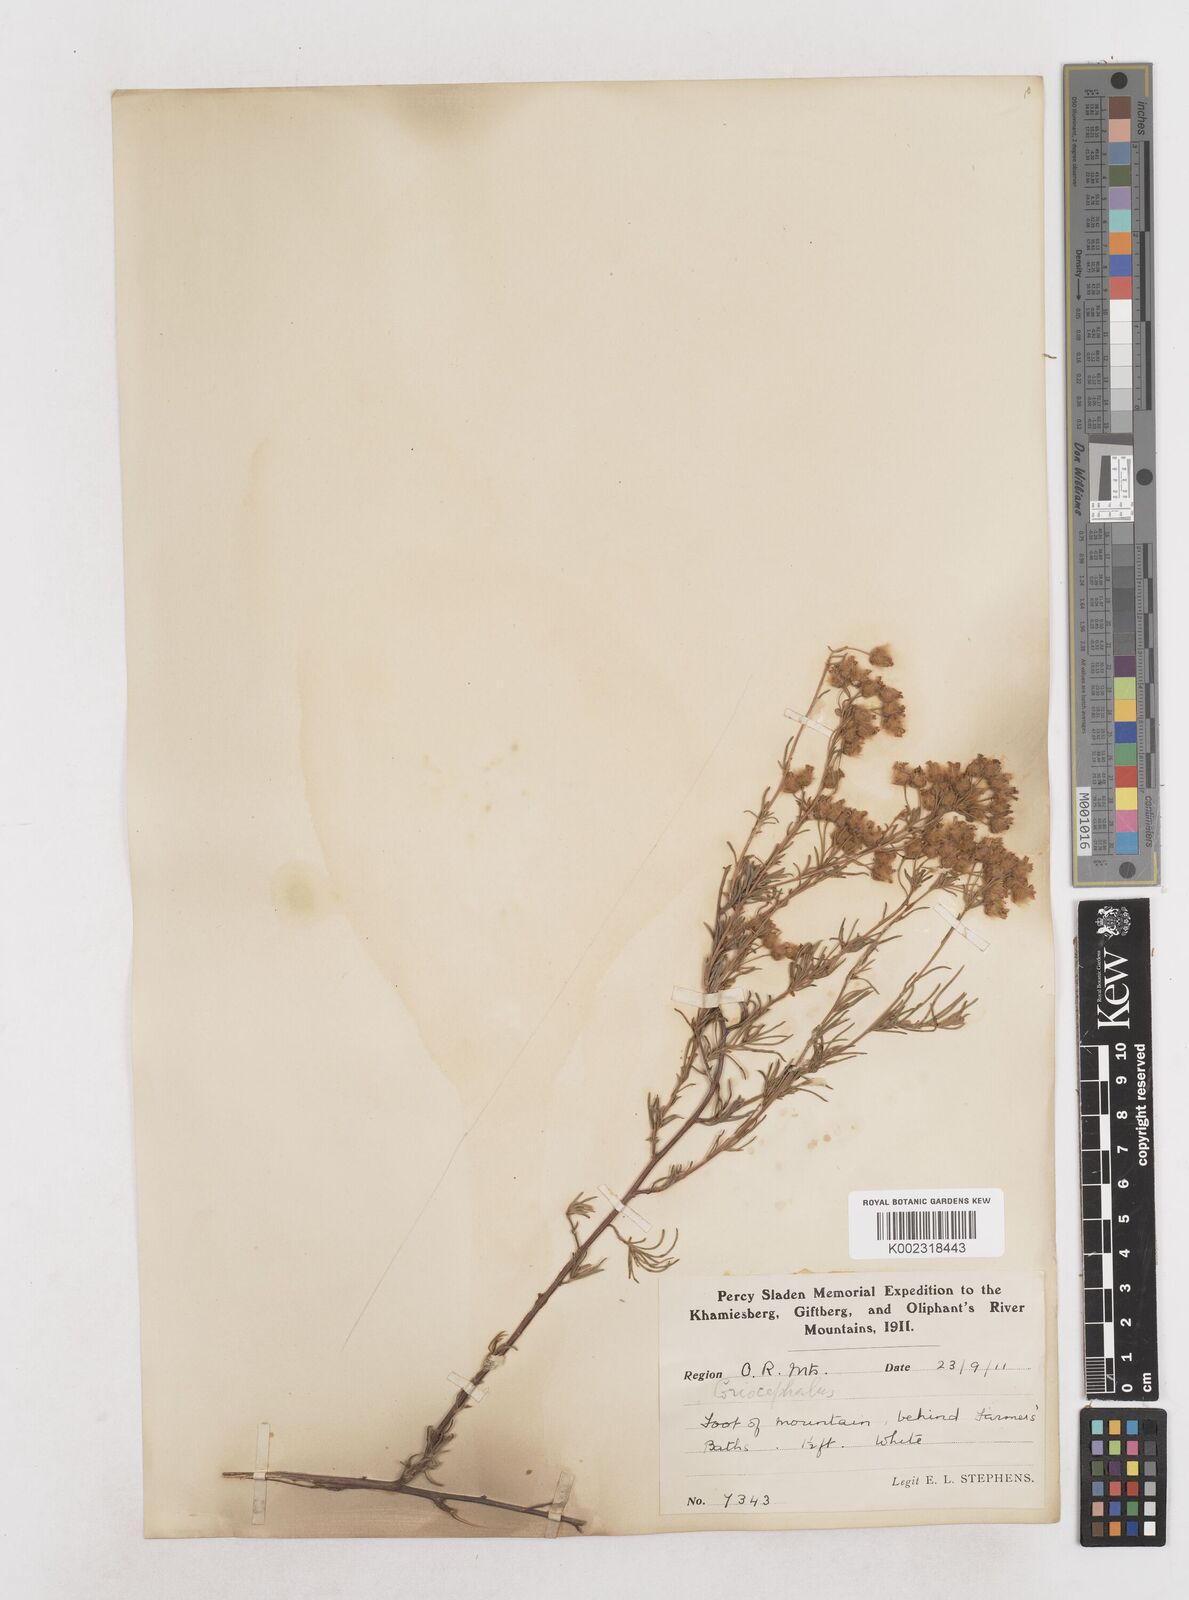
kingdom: Plantae
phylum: Tracheophyta
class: Magnoliopsida
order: Asterales
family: Asteraceae
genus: Eriocephalus
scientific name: Eriocephalus
